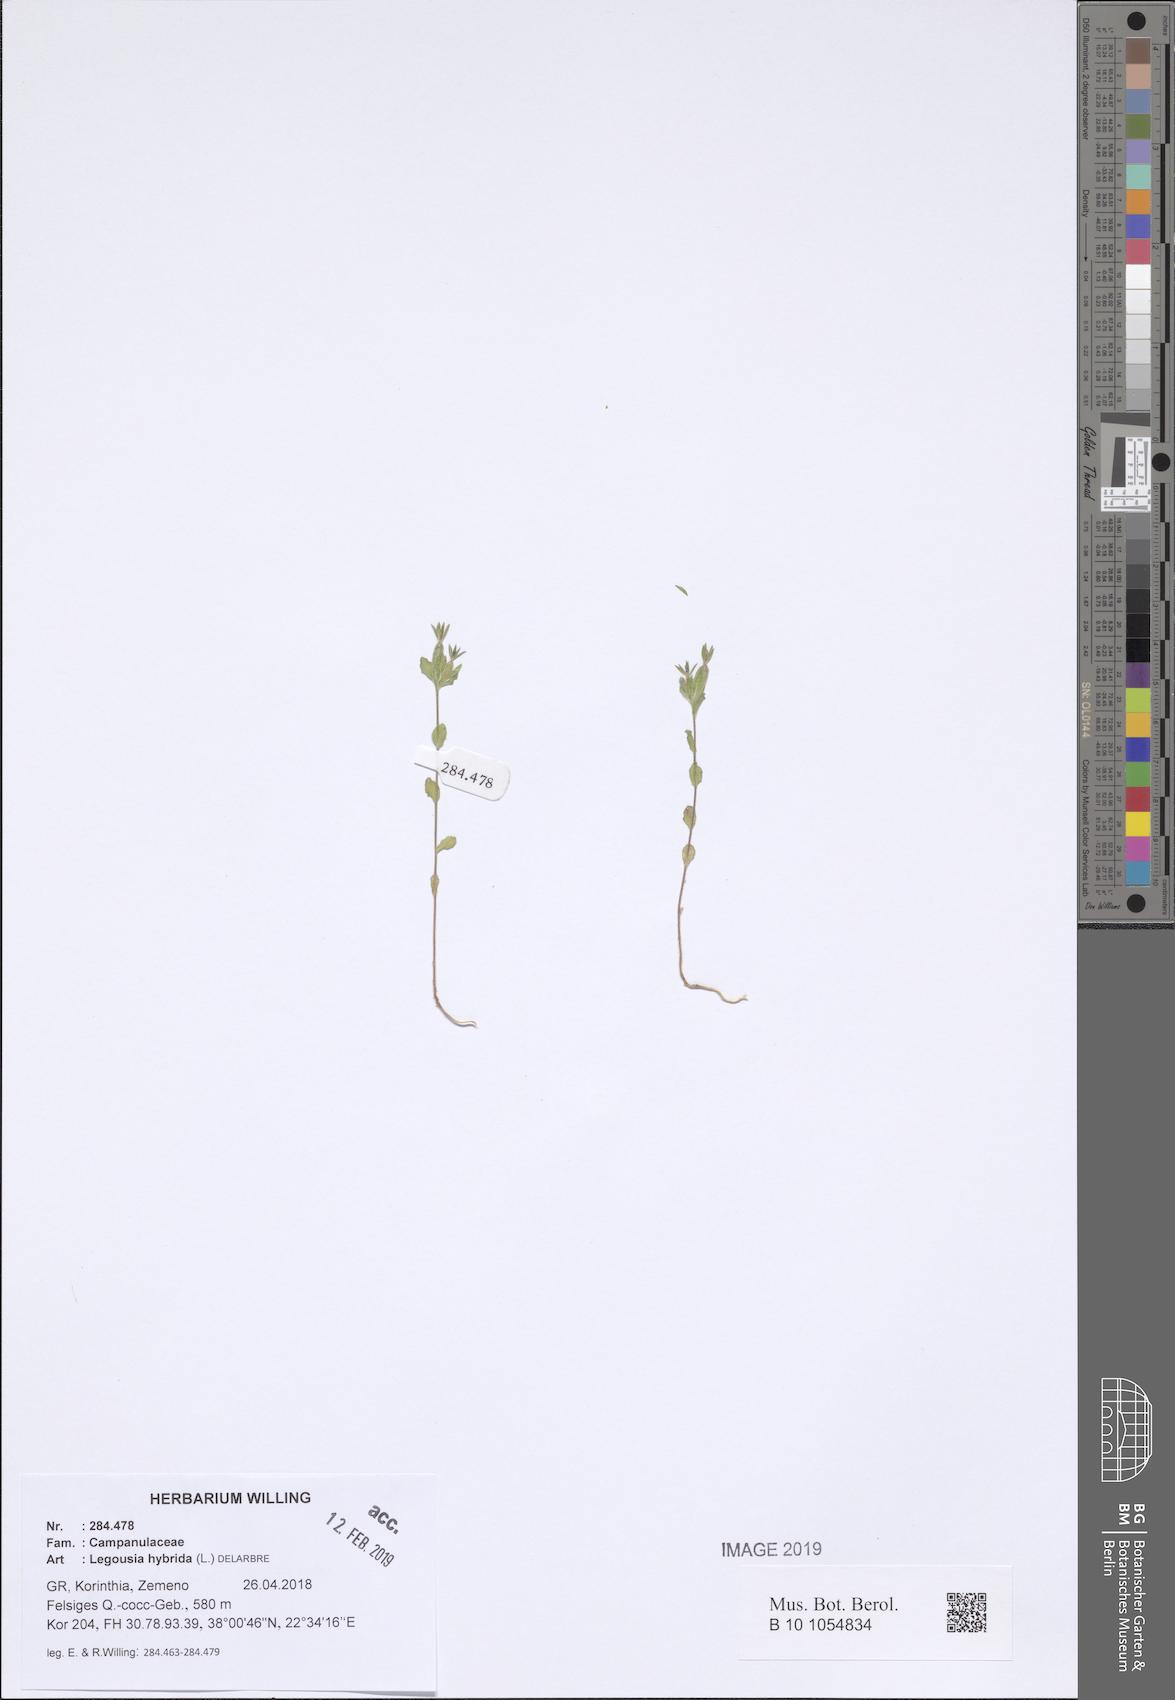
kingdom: Plantae
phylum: Tracheophyta
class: Magnoliopsida
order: Asterales
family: Campanulaceae
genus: Legousia
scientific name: Legousia hybrida
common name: Venus's-looking-glass
